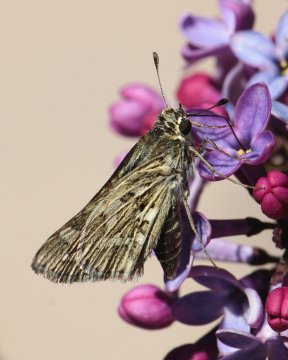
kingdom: Animalia
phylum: Arthropoda
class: Insecta
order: Lepidoptera
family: Hesperiidae
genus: Yvretta
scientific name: Yvretta carus
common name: Carus Skipper
